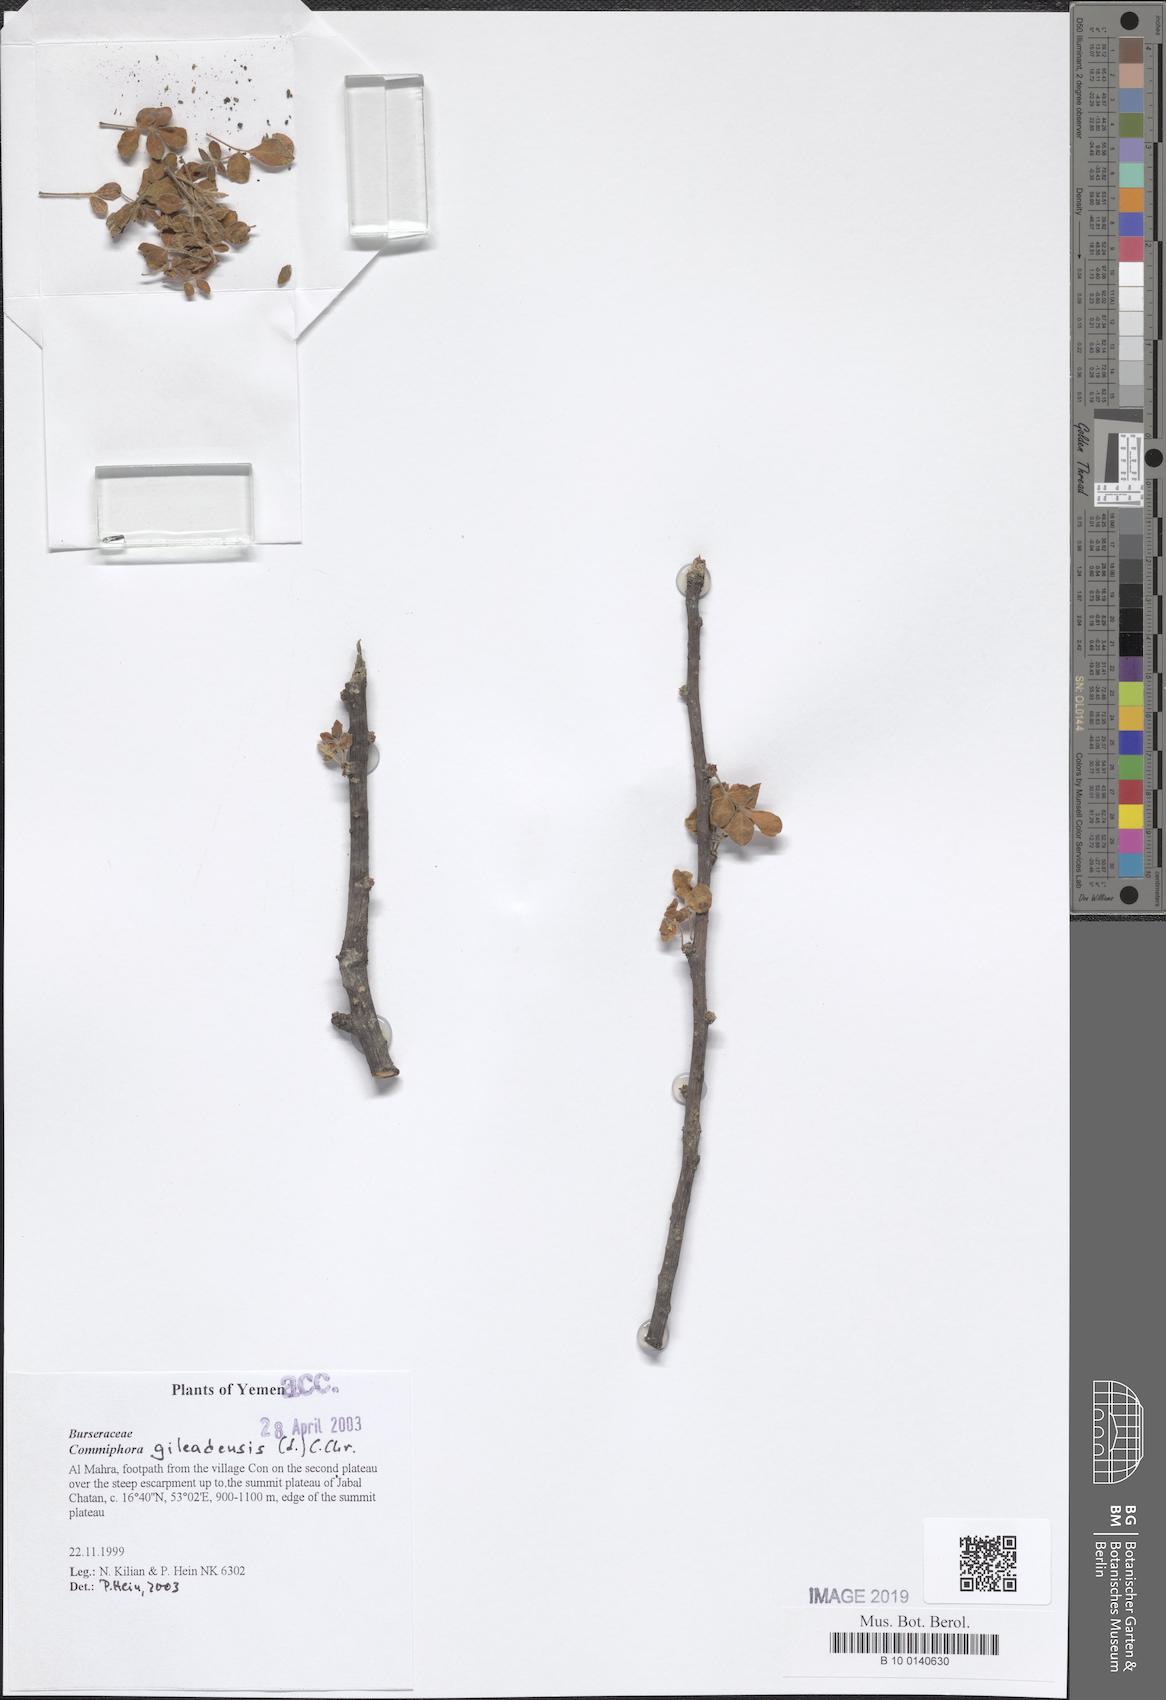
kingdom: Plantae
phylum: Tracheophyta
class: Magnoliopsida
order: Sapindales
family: Burseraceae
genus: Commiphora
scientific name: Commiphora gileadensis
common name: Balm-of-gilead
